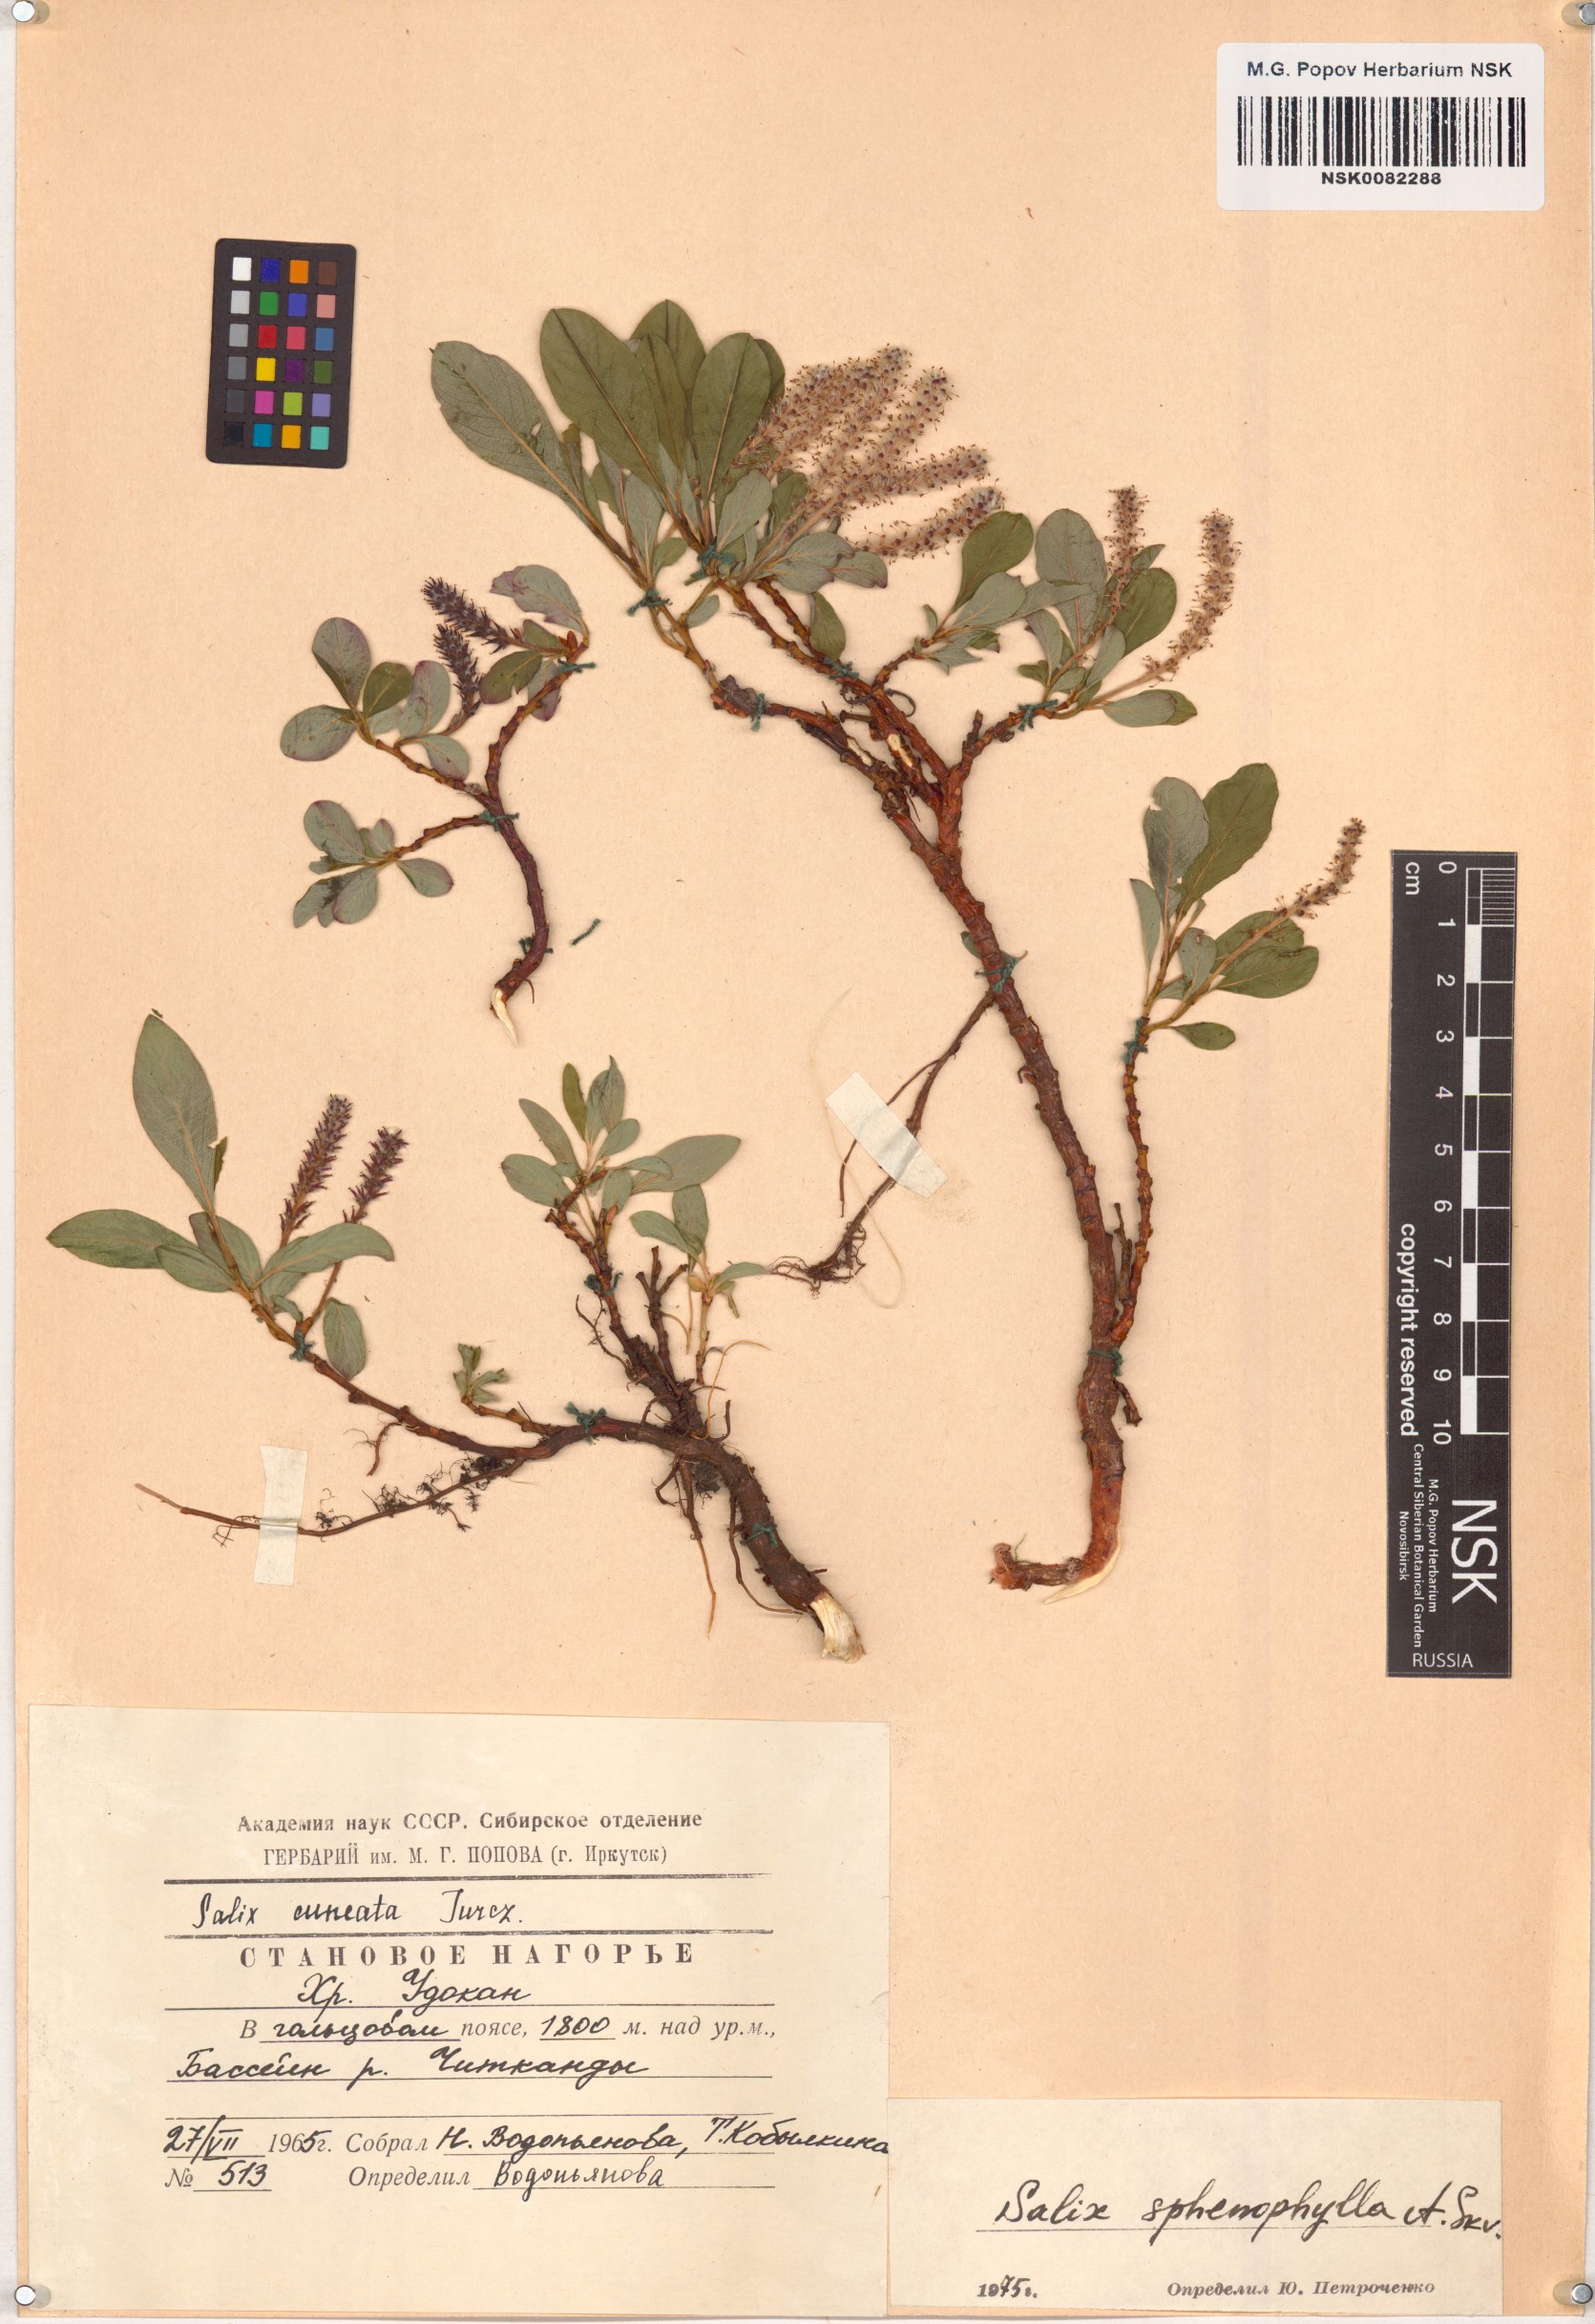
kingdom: Plantae
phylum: Tracheophyta
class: Magnoliopsida
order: Malpighiales
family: Salicaceae
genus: Salix
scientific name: Salix sphenophylla
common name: Wedge-leaved willow
